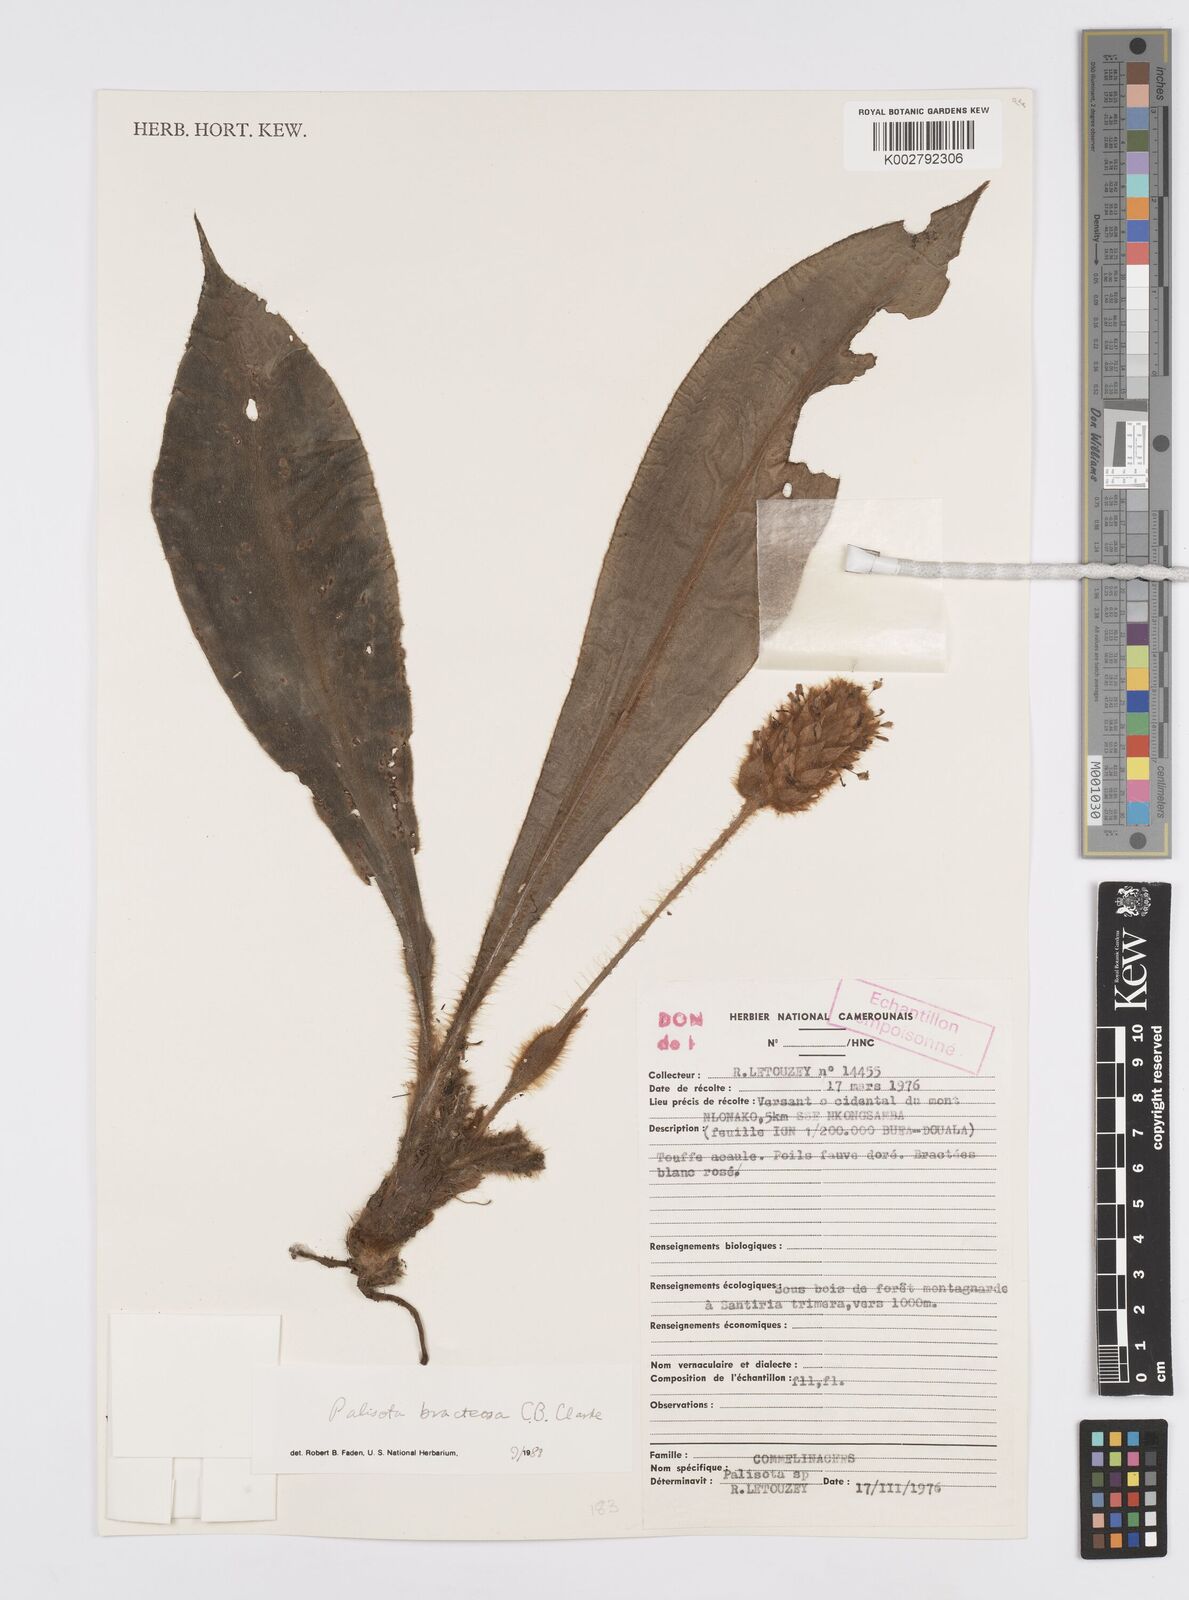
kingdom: Plantae
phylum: Tracheophyta
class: Liliopsida
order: Commelinales
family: Commelinaceae
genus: Palisota
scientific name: Palisota bracteosa
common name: Palisota
